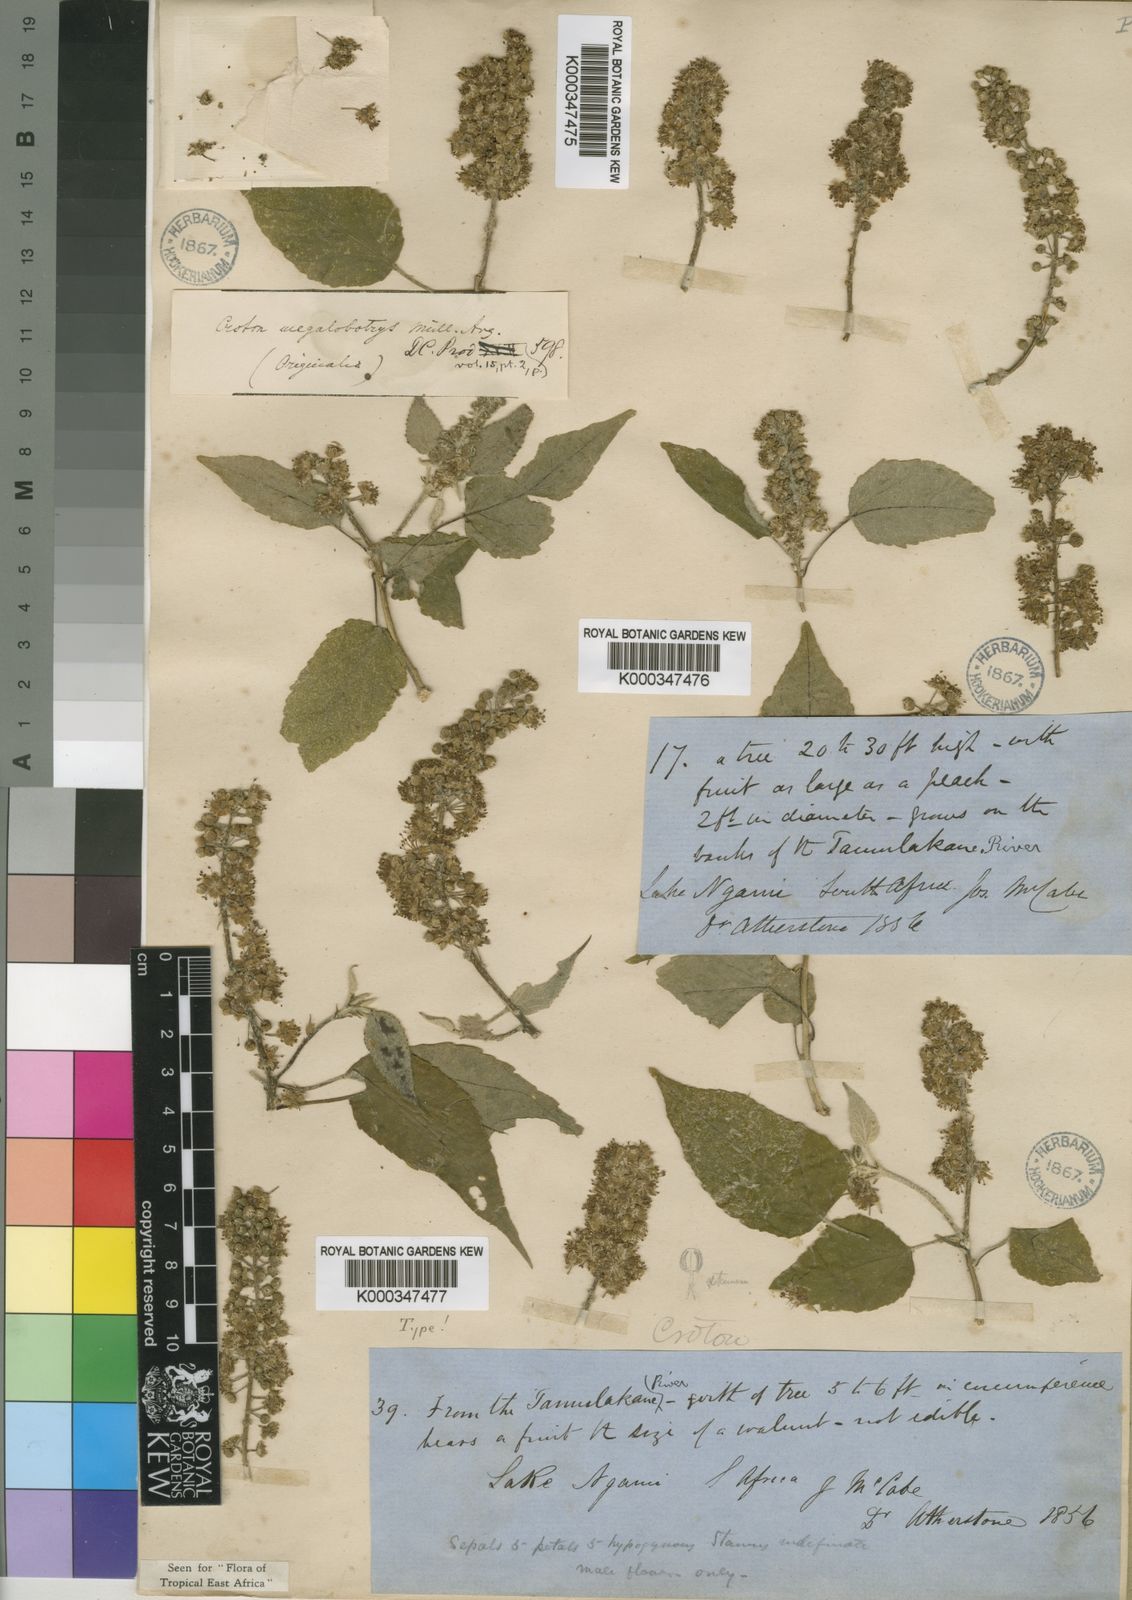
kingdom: Plantae
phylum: Tracheophyta
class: Magnoliopsida
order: Malpighiales
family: Euphorbiaceae
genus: Croton
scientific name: Croton
